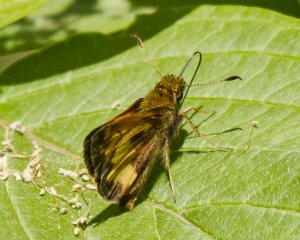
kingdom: Animalia
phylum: Arthropoda
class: Insecta
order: Lepidoptera
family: Hesperiidae
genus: Lon
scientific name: Lon hobomok
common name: Hobomok Skipper
